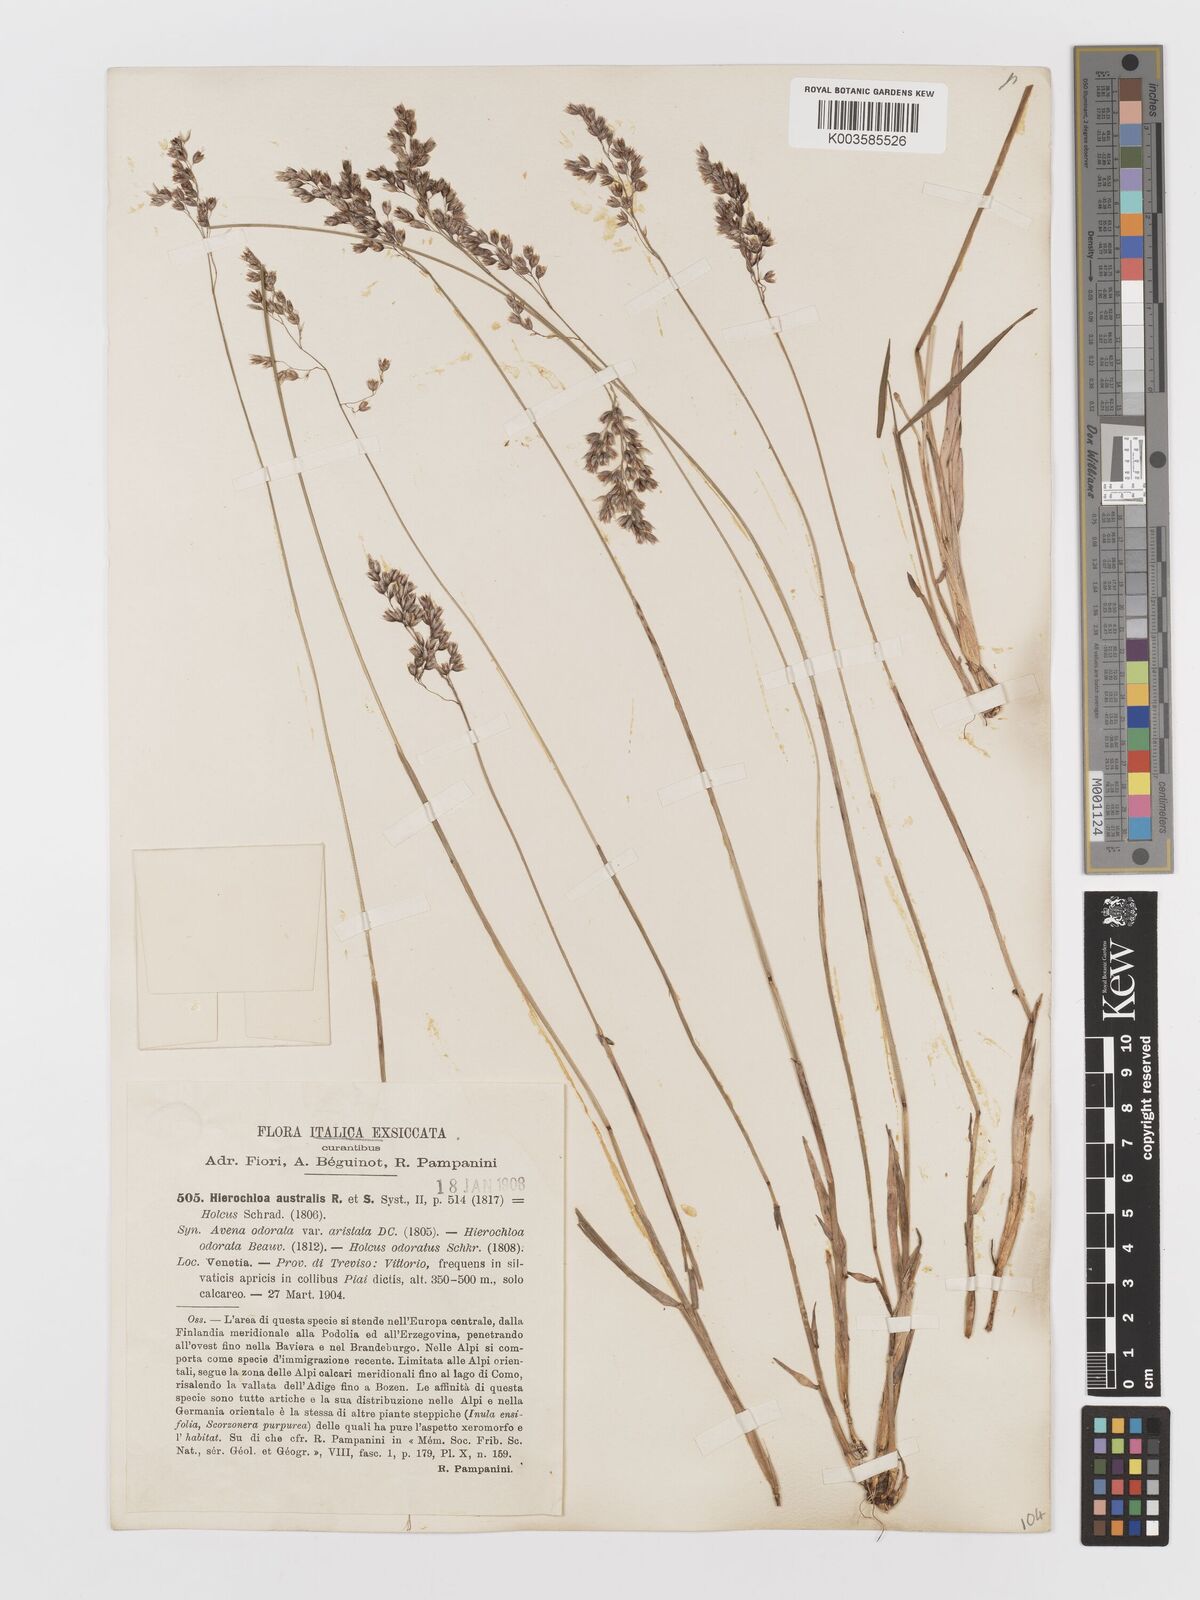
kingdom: Plantae
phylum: Tracheophyta
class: Liliopsida
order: Poales
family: Poaceae
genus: Anthoxanthum
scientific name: Anthoxanthum australe
